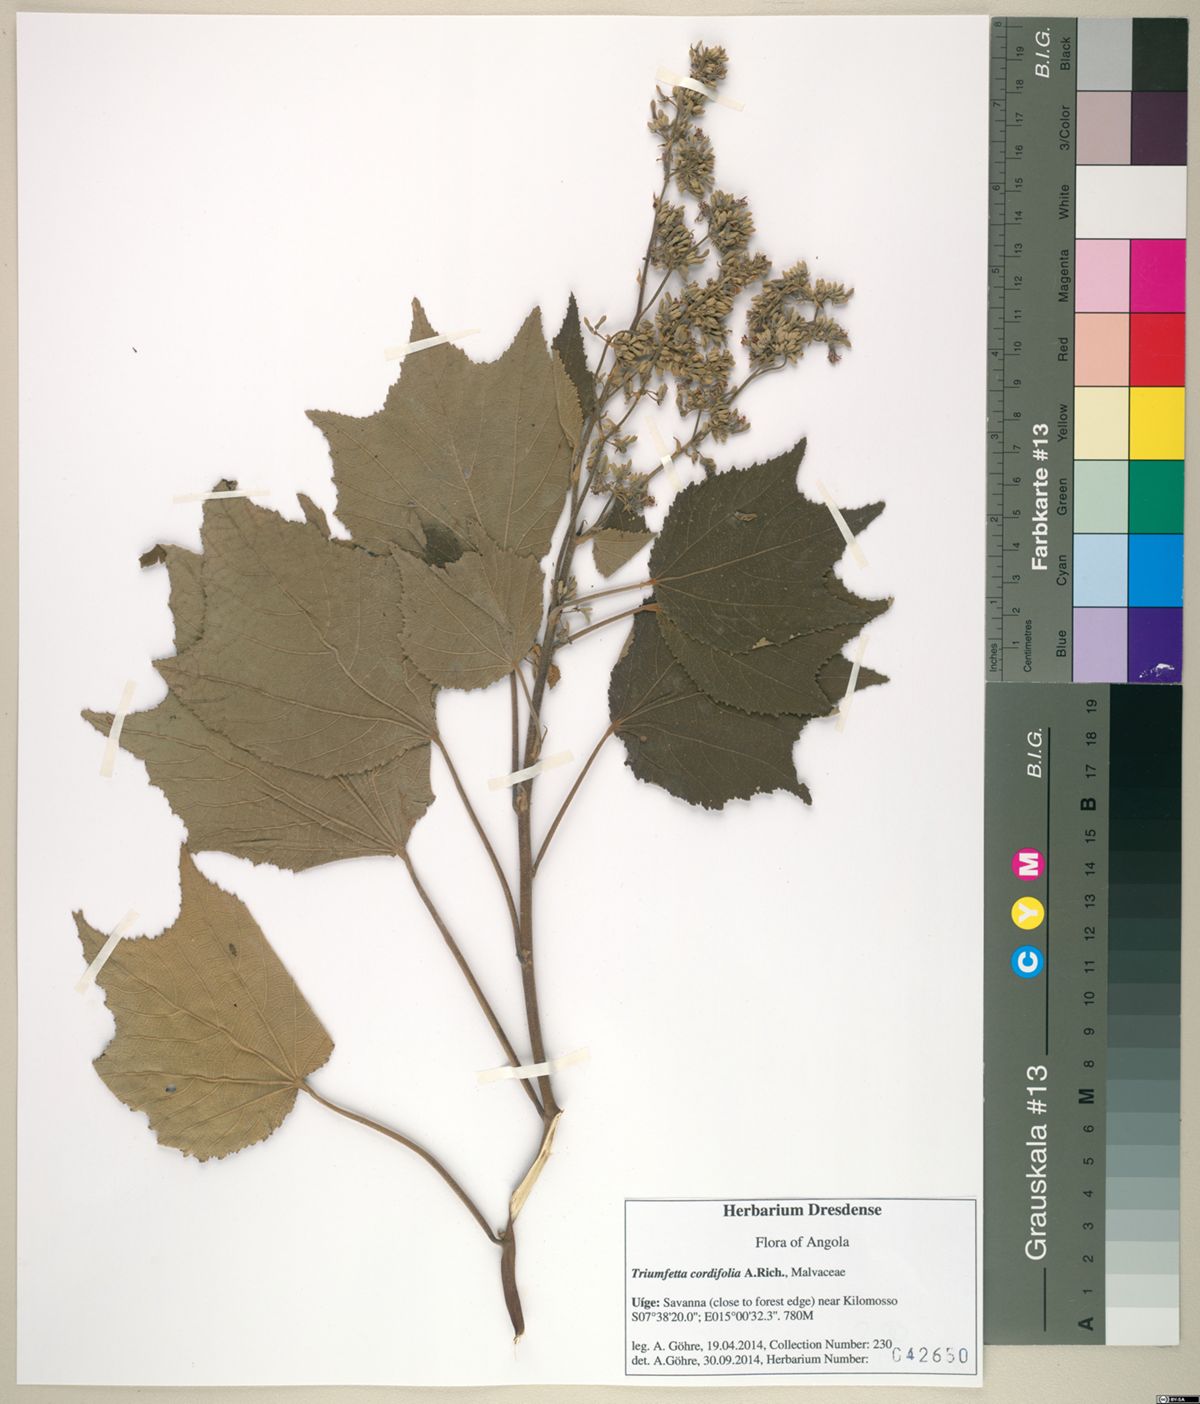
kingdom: Plantae
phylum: Tracheophyta
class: Magnoliopsida
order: Malvales
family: Malvaceae
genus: Triumfetta
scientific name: Triumfetta cordifolia
